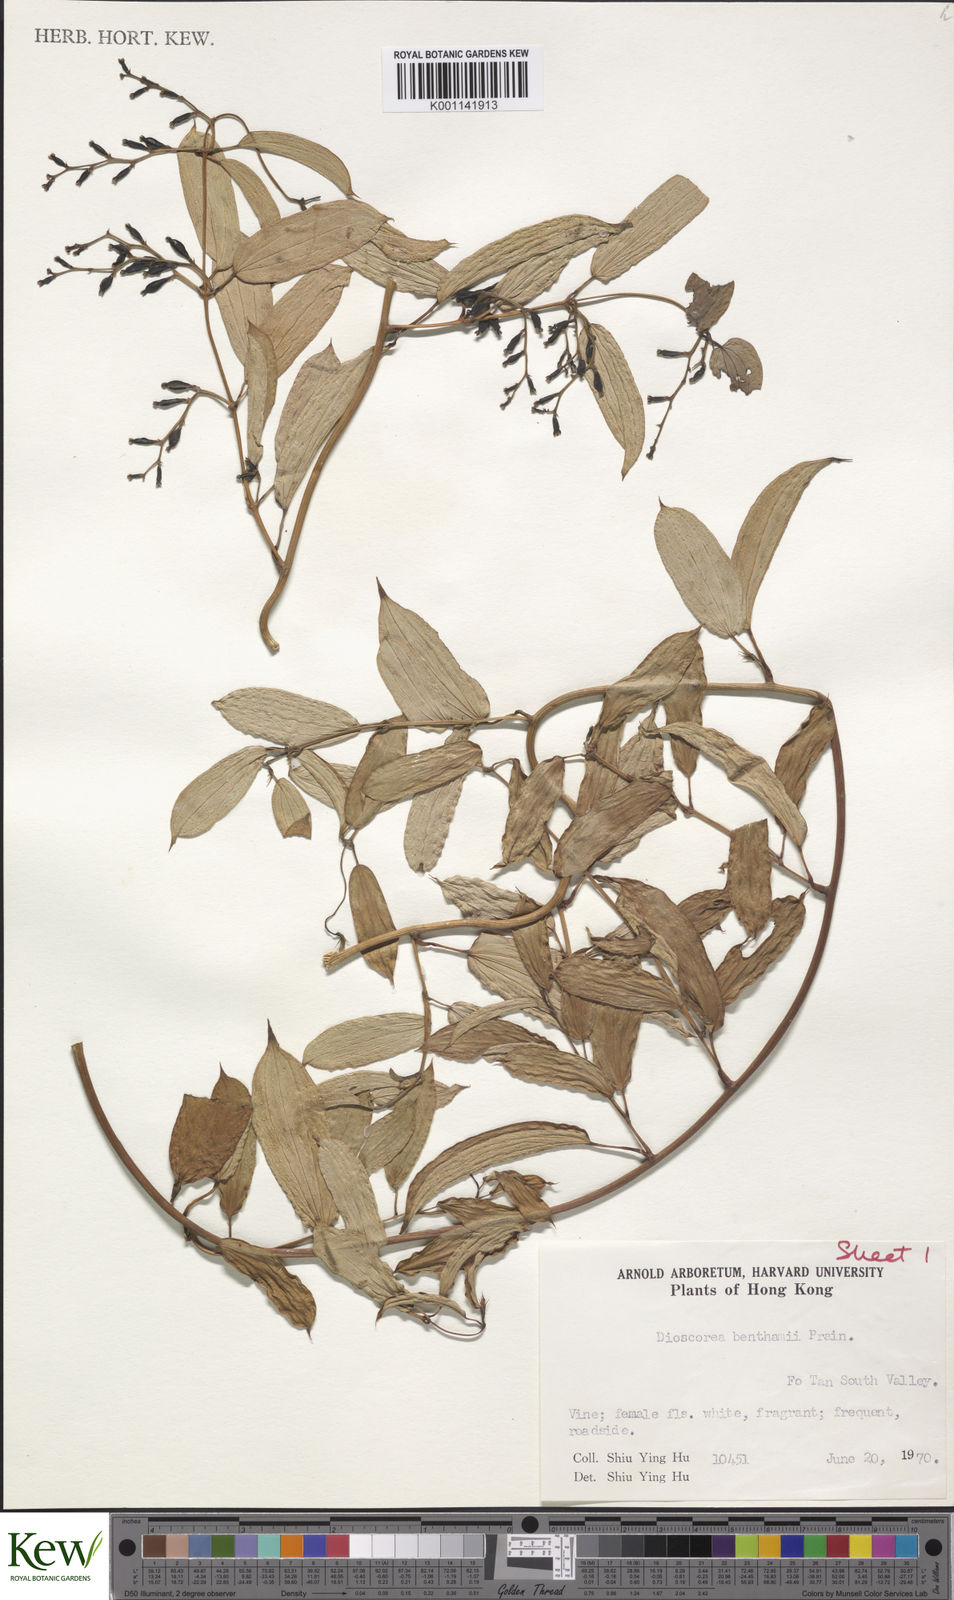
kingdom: Plantae
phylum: Tracheophyta
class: Liliopsida
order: Dioscoreales
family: Dioscoreaceae
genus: Dioscorea
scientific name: Dioscorea benthamii
